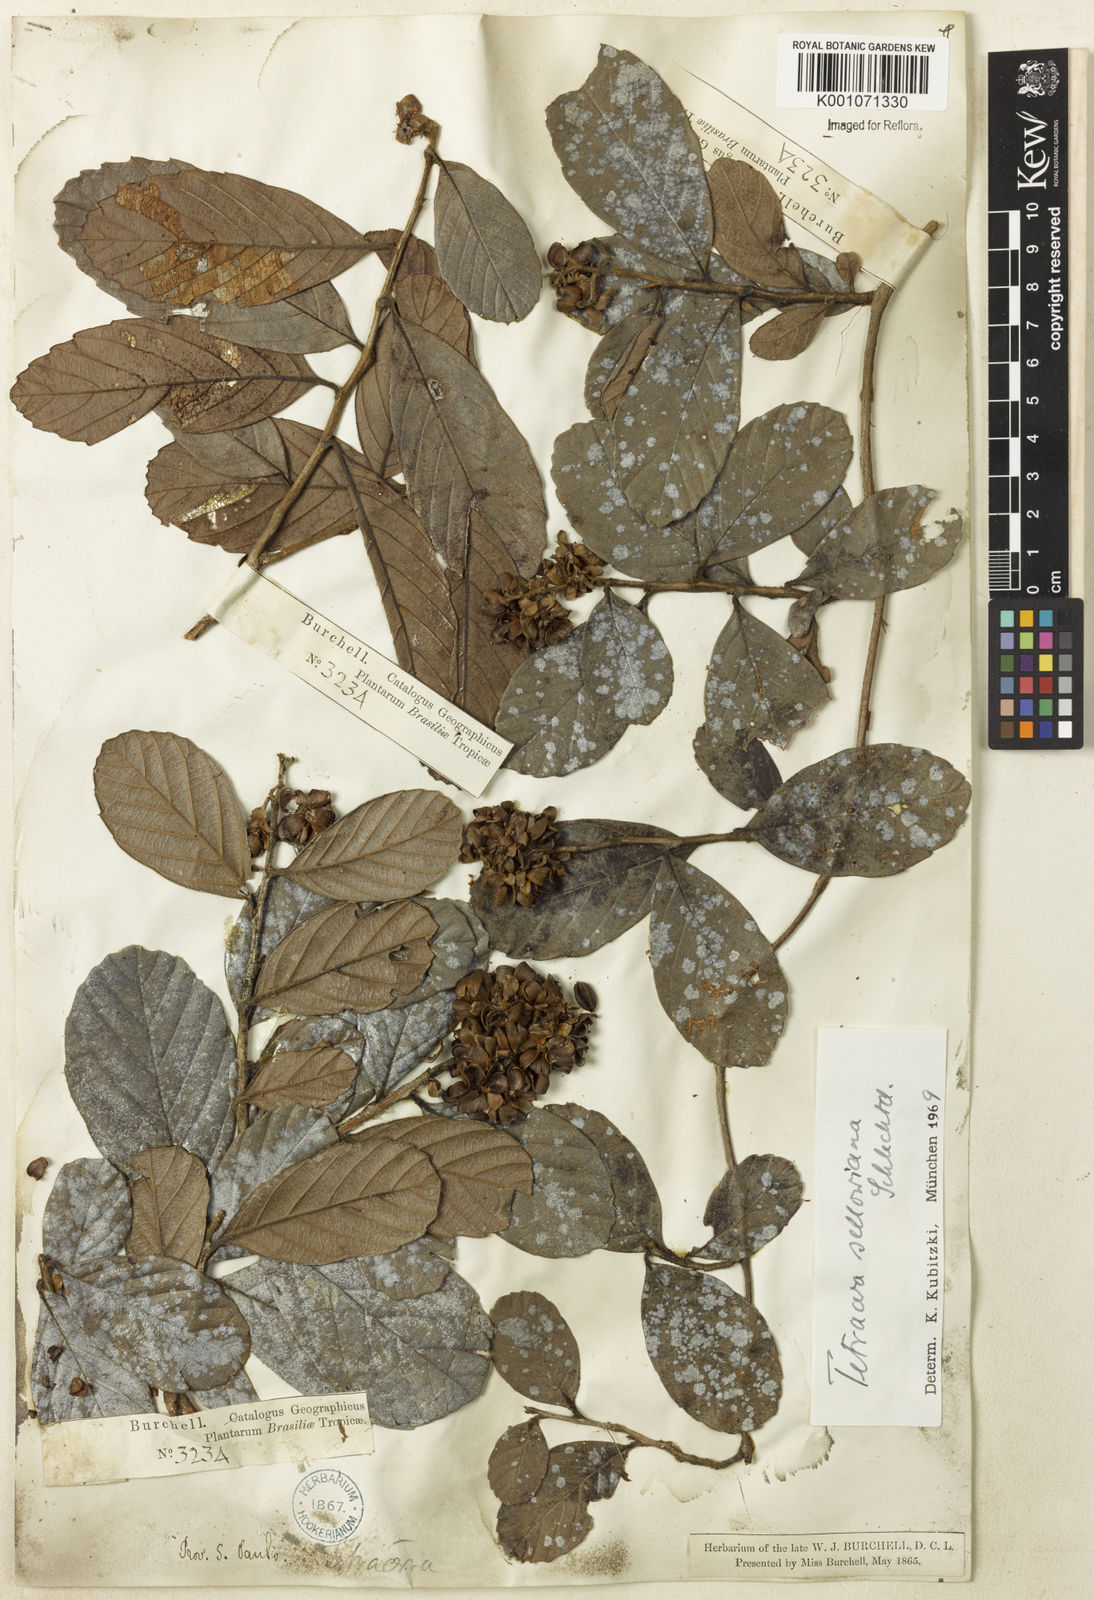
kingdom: Plantae
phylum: Tracheophyta
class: Magnoliopsida
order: Dilleniales
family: Dilleniaceae
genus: Tetracera
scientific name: Tetracera oblongata
